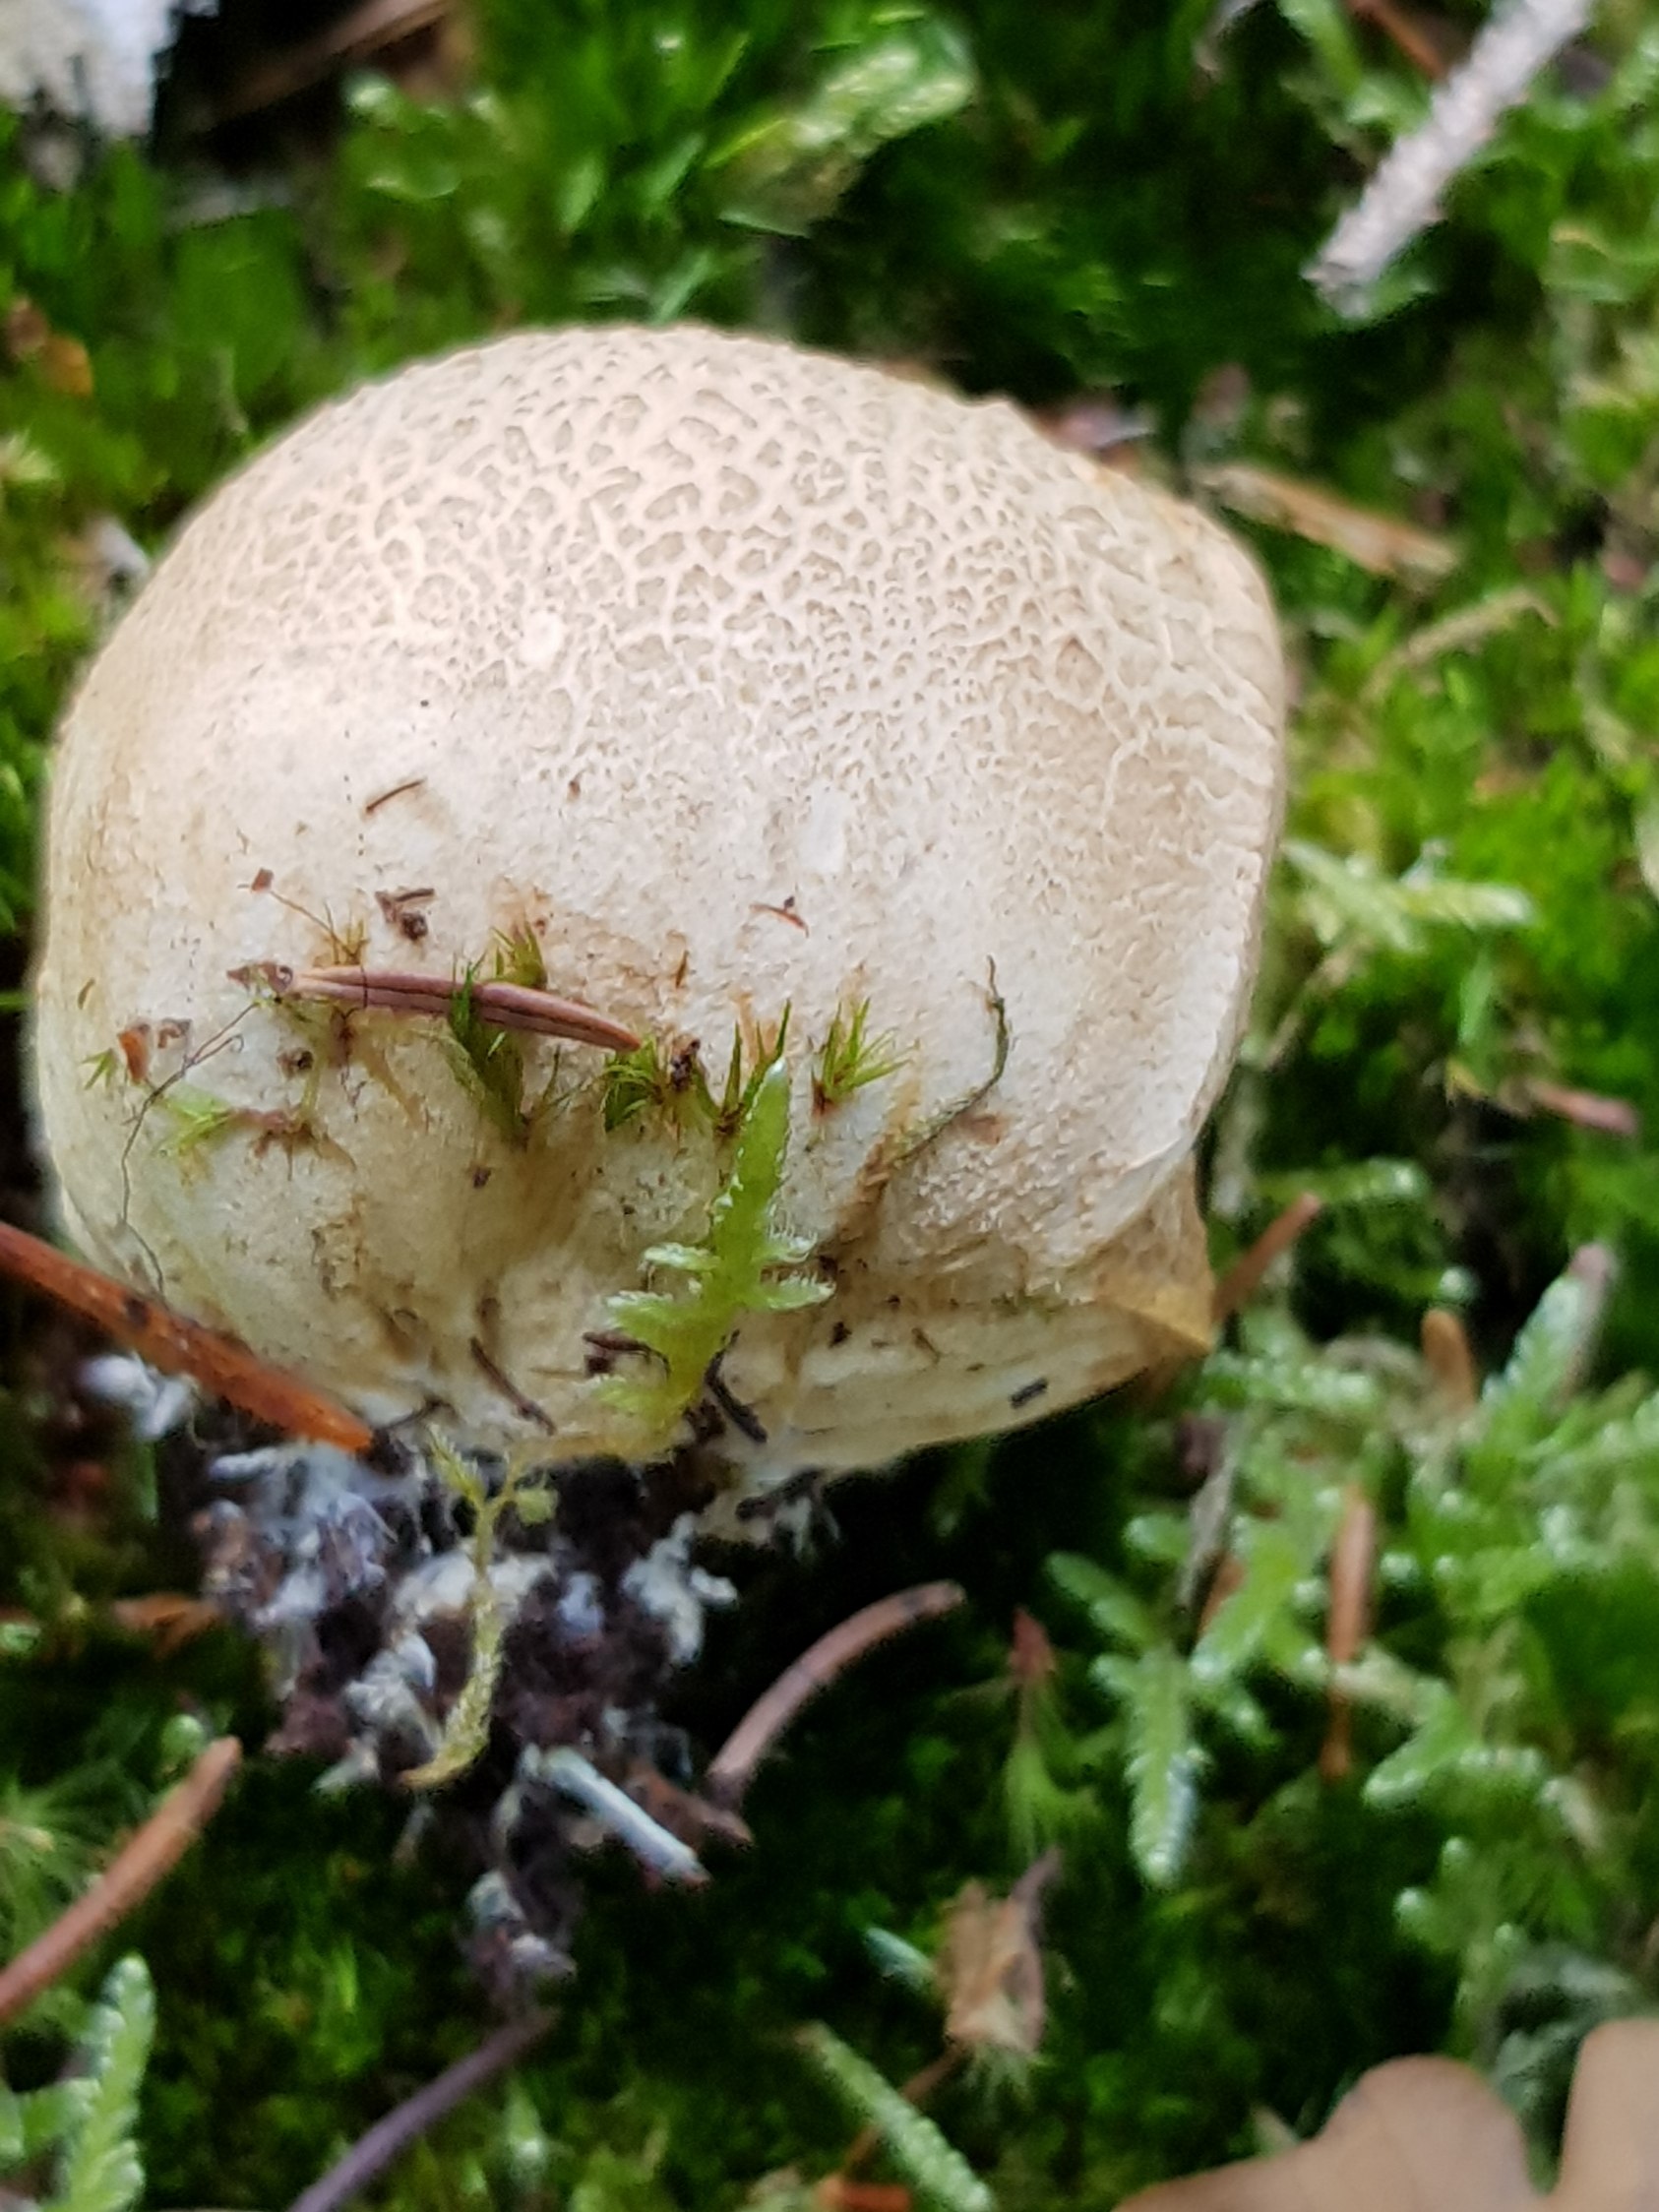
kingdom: Fungi
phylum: Basidiomycota
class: Agaricomycetes
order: Boletales
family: Sclerodermataceae
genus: Scleroderma
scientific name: Scleroderma citrinum
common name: almindelig bruskbold
